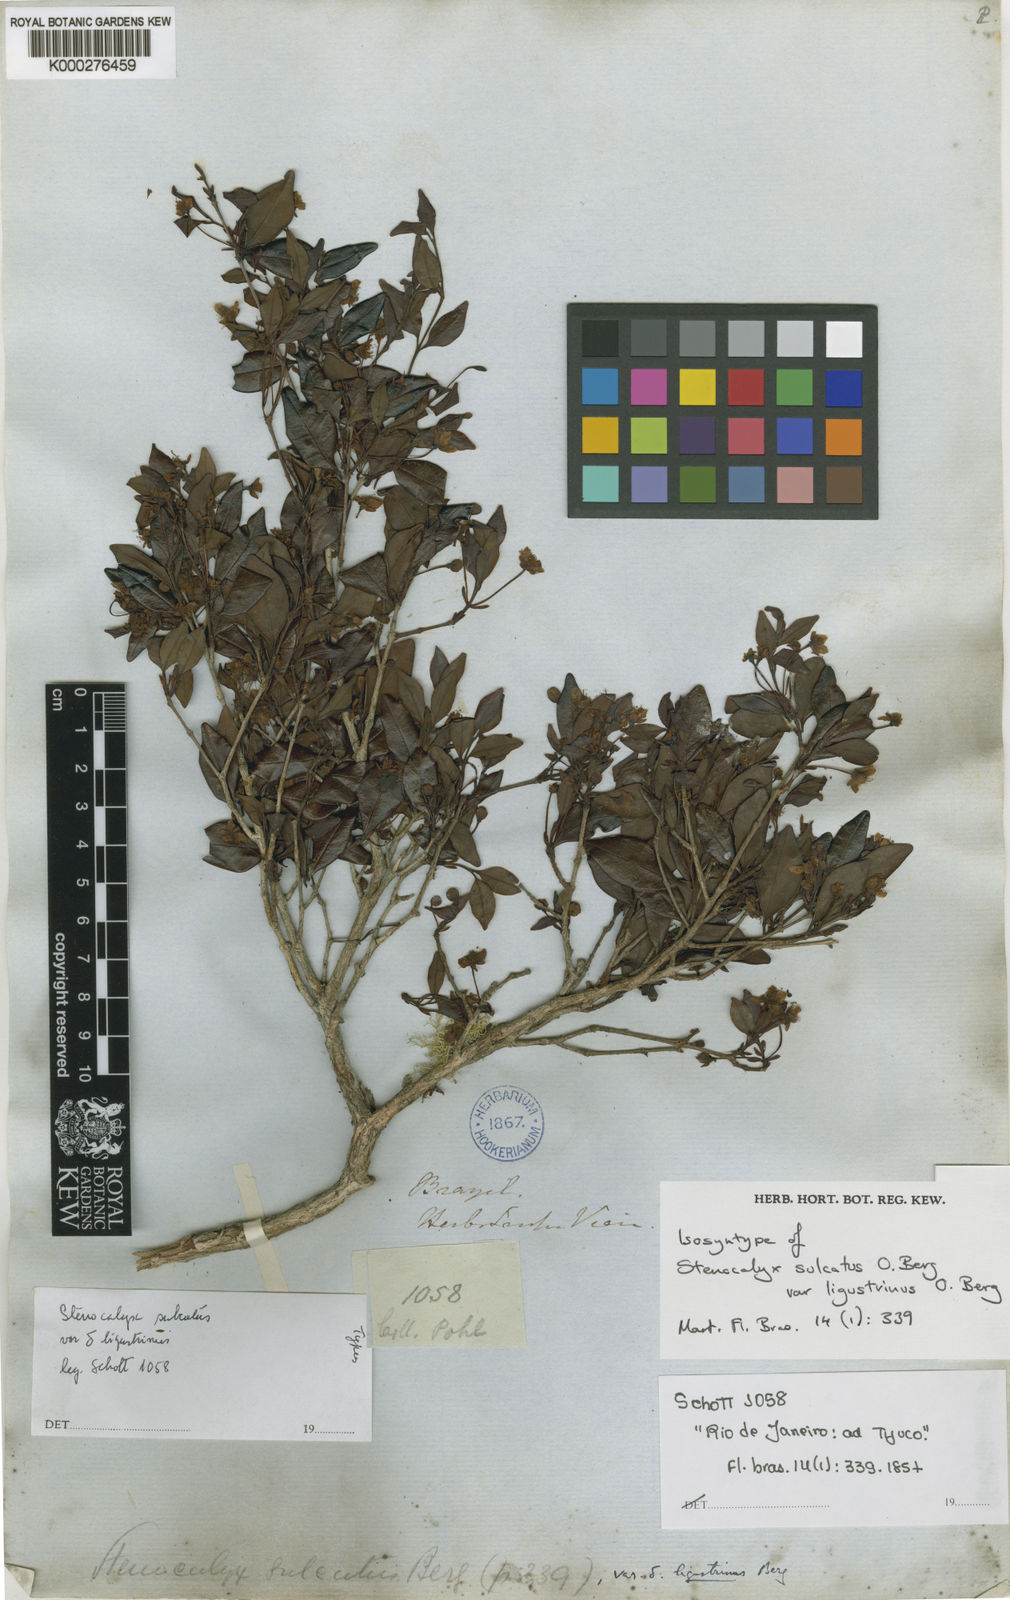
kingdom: Plantae
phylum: Tracheophyta
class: Magnoliopsida
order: Myrtales
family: Myrtaceae
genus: Eugenia
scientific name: Eugenia sulcata
